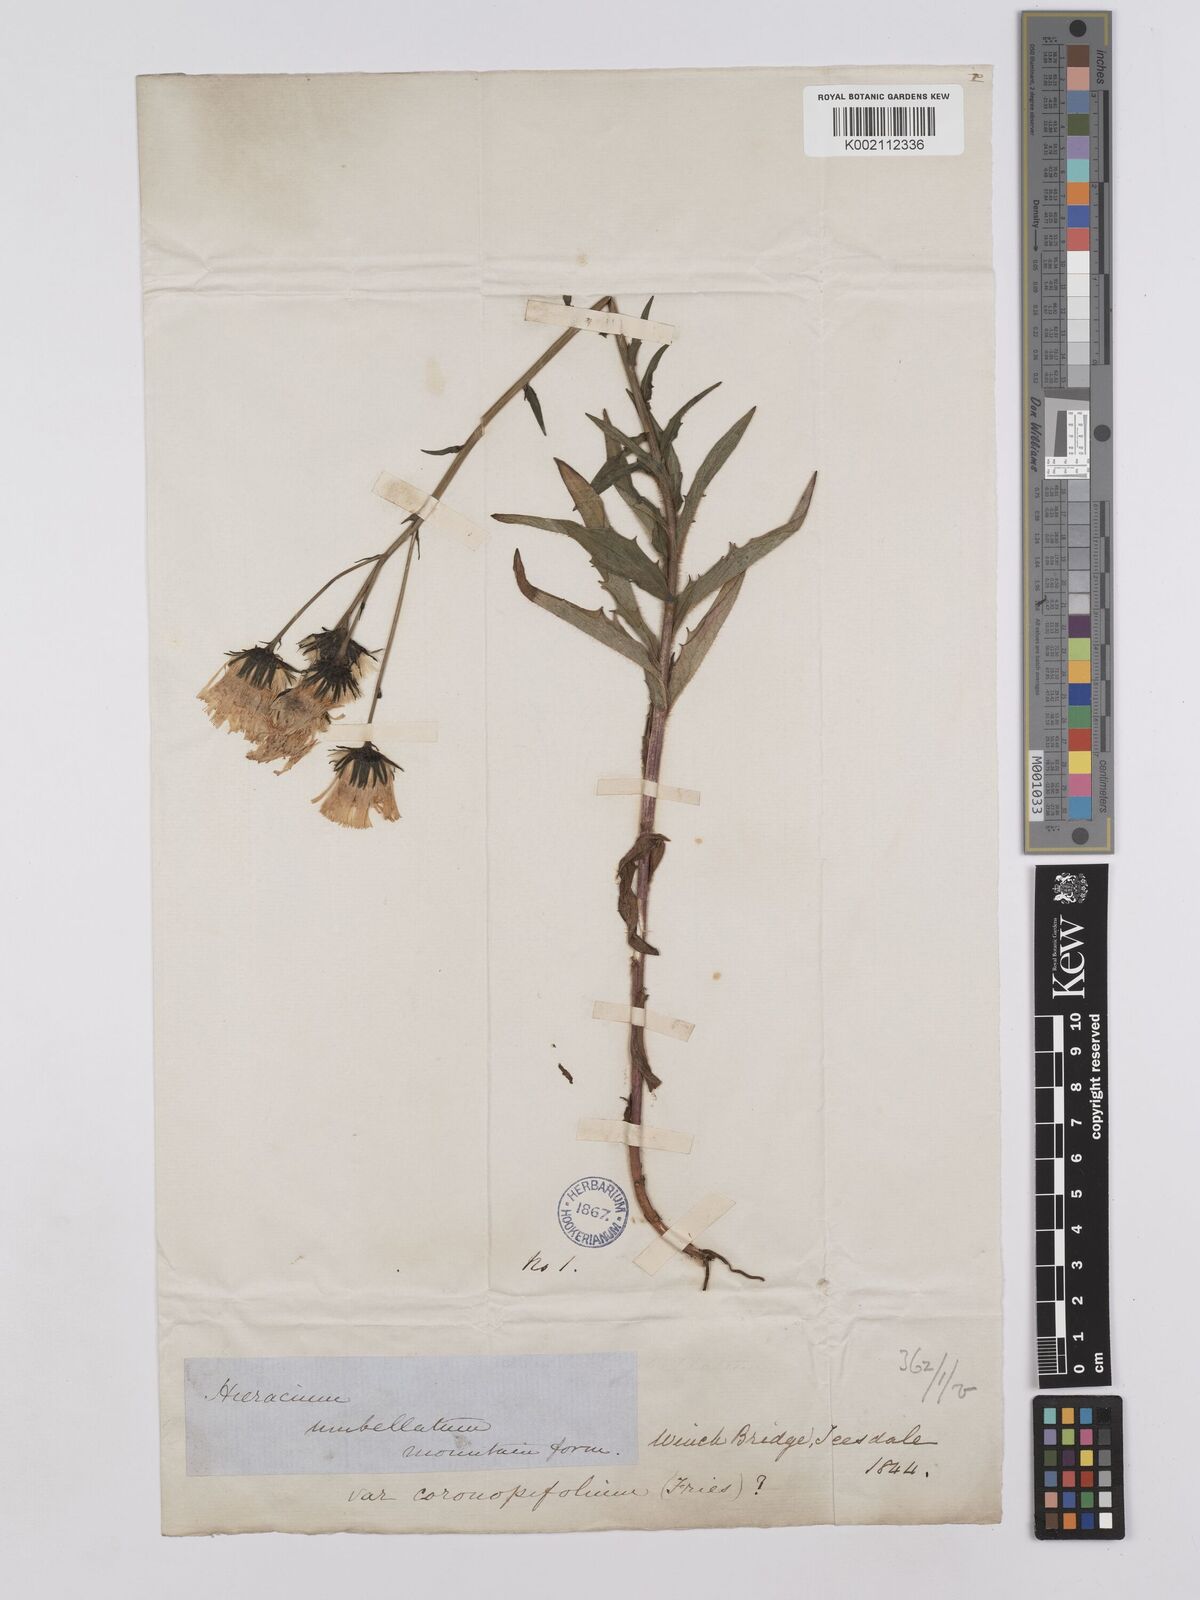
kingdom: Plantae
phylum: Tracheophyta
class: Magnoliopsida
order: Asterales
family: Asteraceae
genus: Hieracium
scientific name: Hieracium umbellatum
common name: Northern hawkweed
